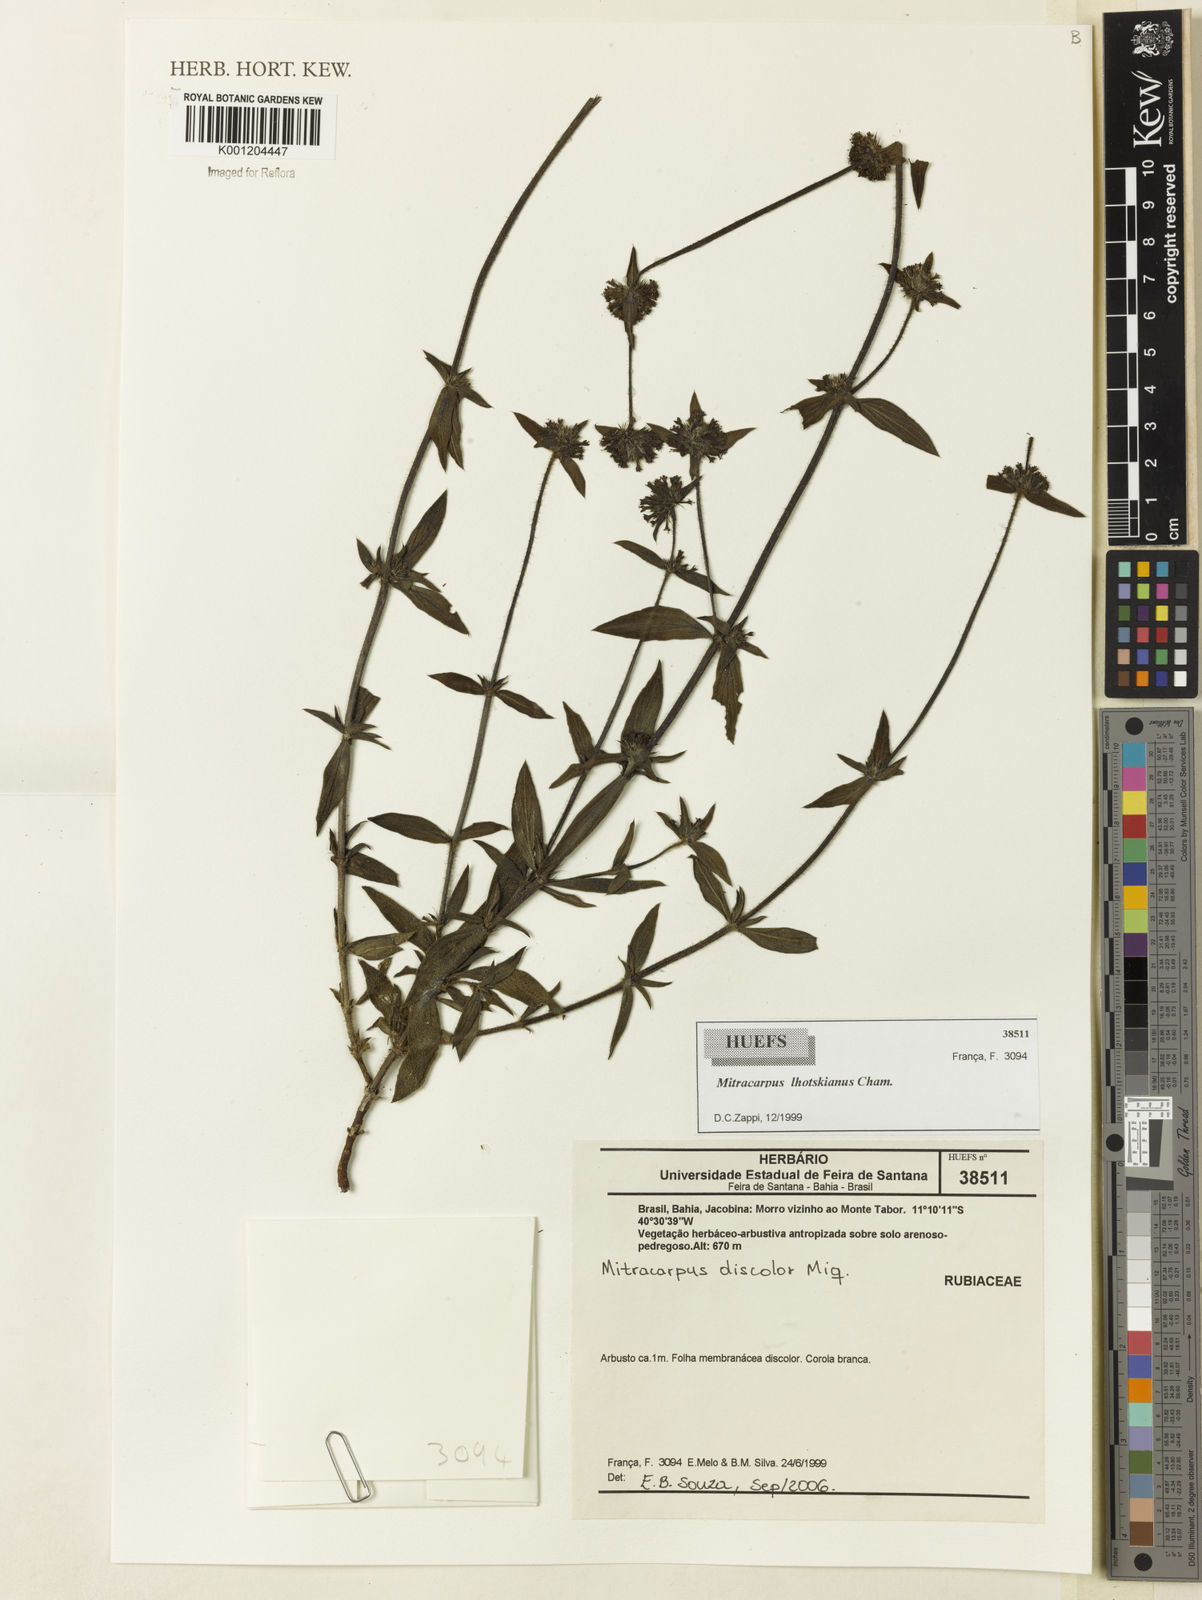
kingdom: Plantae
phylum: Tracheophyta
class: Magnoliopsida
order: Gentianales
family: Rubiaceae
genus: Mitracarpus
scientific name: Mitracarpus lhotzkyanus
